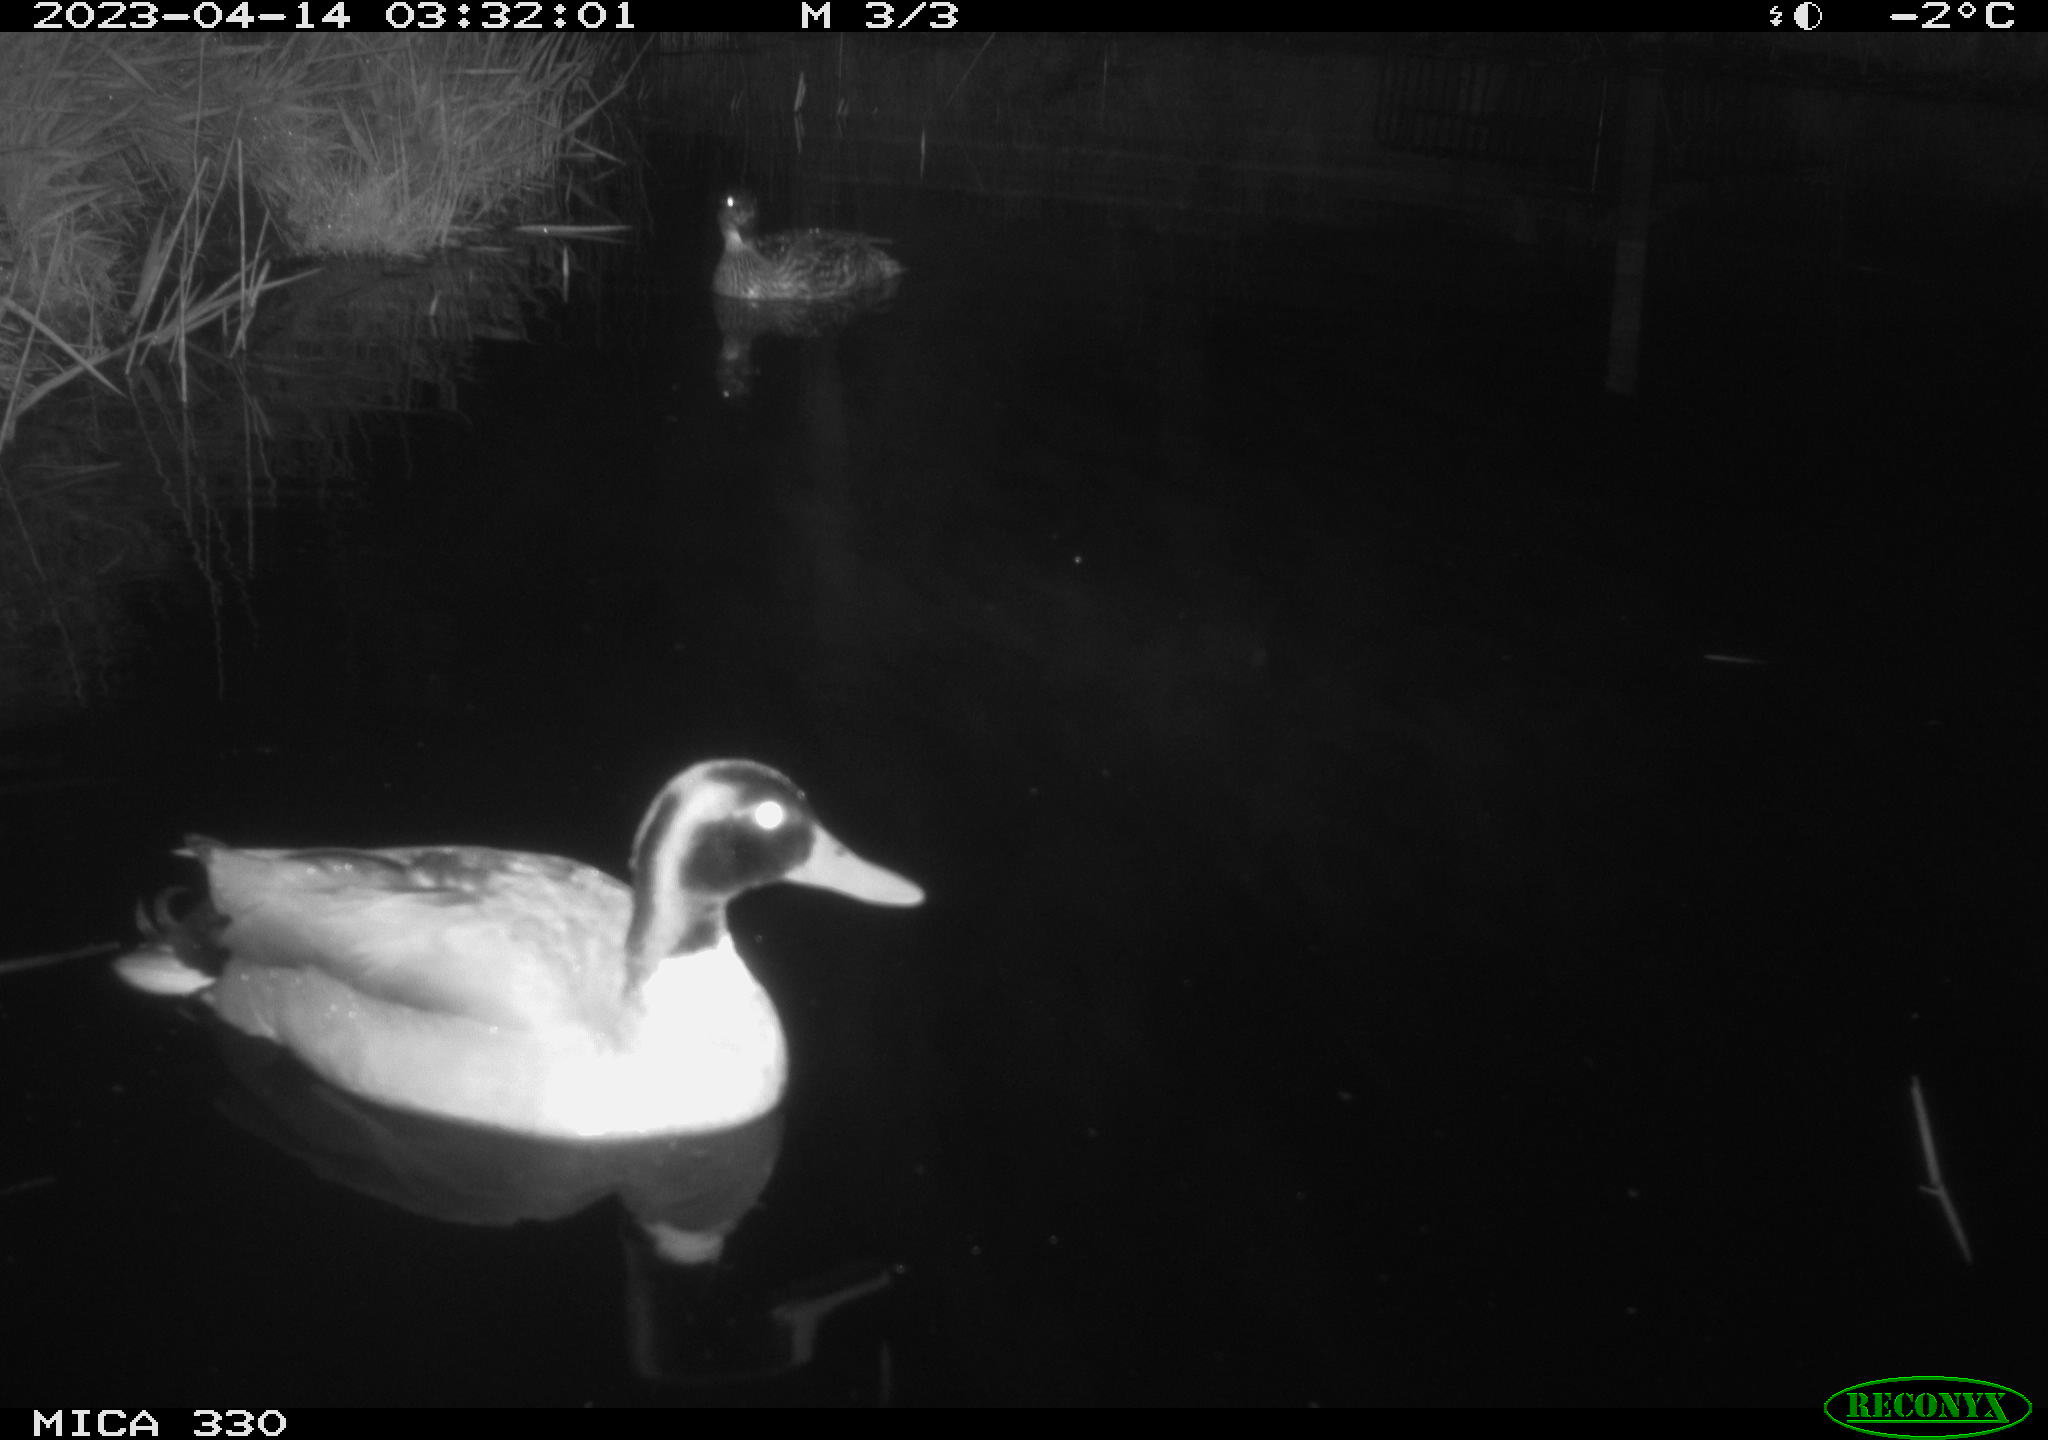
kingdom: Animalia
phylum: Chordata
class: Aves
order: Anseriformes
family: Anatidae
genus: Anas
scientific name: Anas platyrhynchos
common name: Mallard
